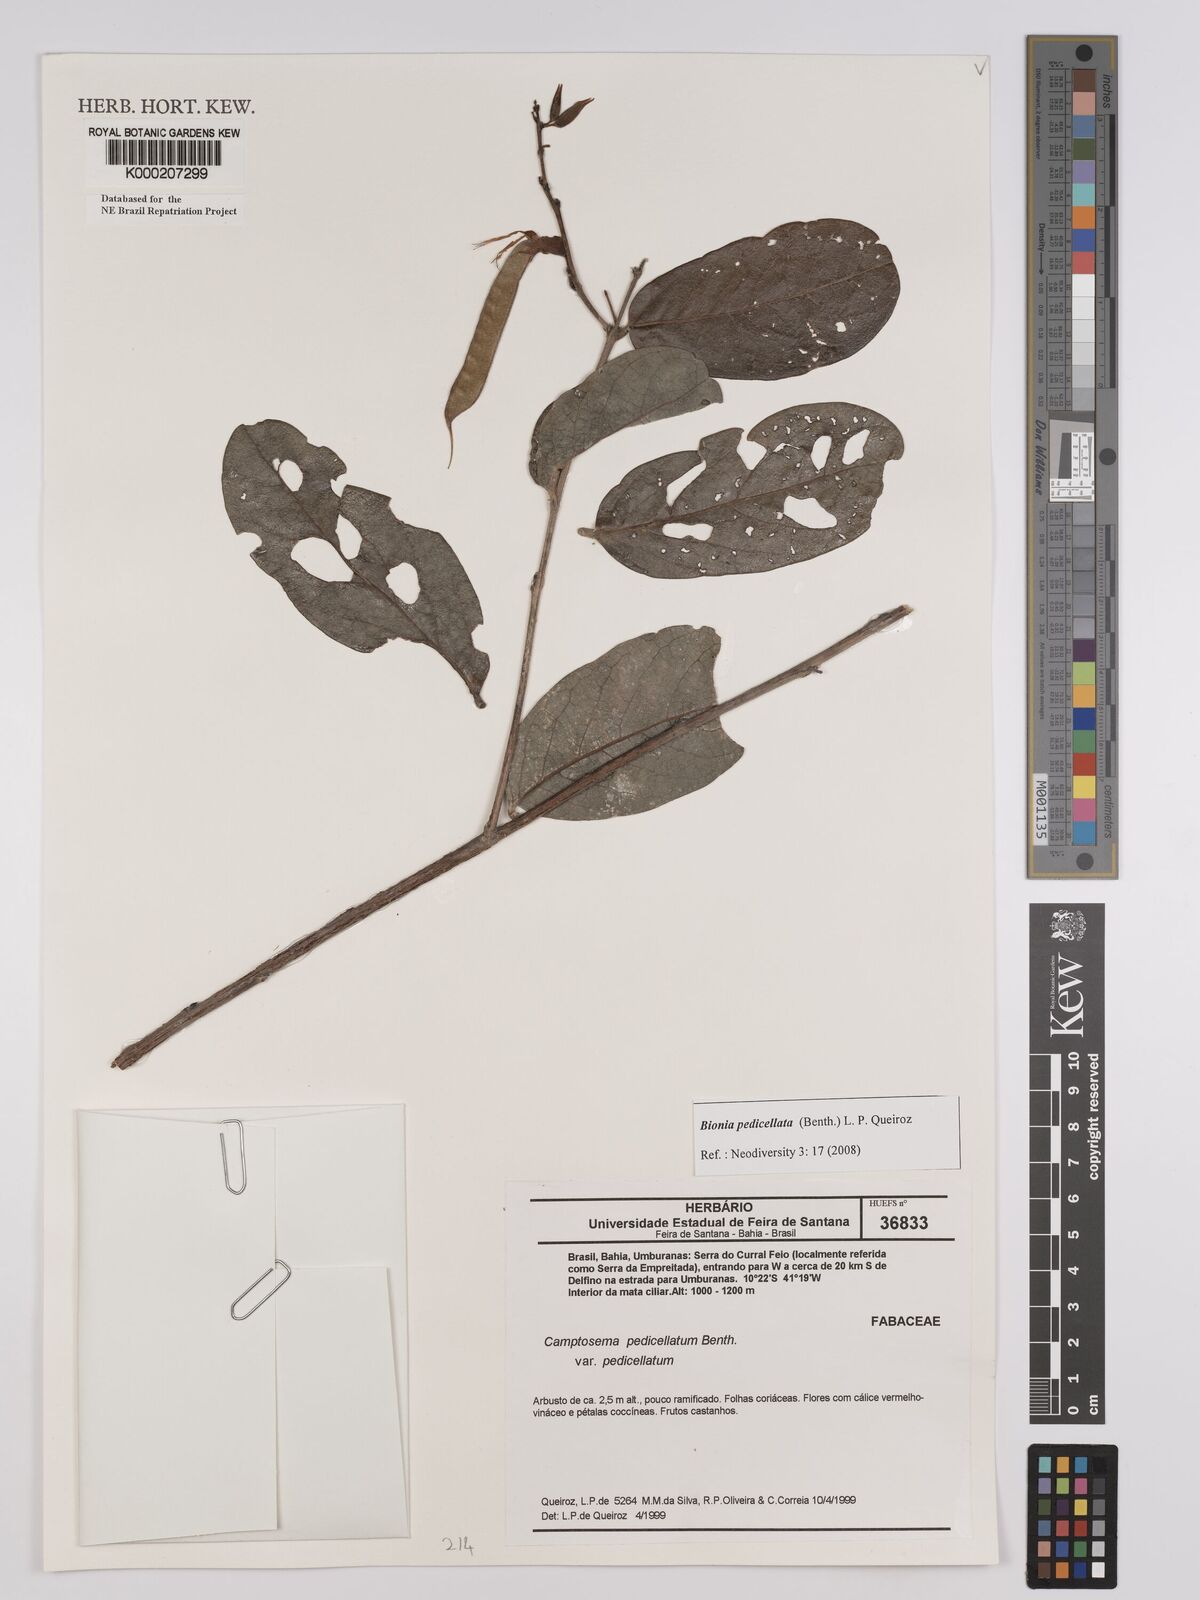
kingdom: Plantae
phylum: Tracheophyta
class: Magnoliopsida
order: Fabales
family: Fabaceae
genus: Camptosema
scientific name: Camptosema pedicellatum
